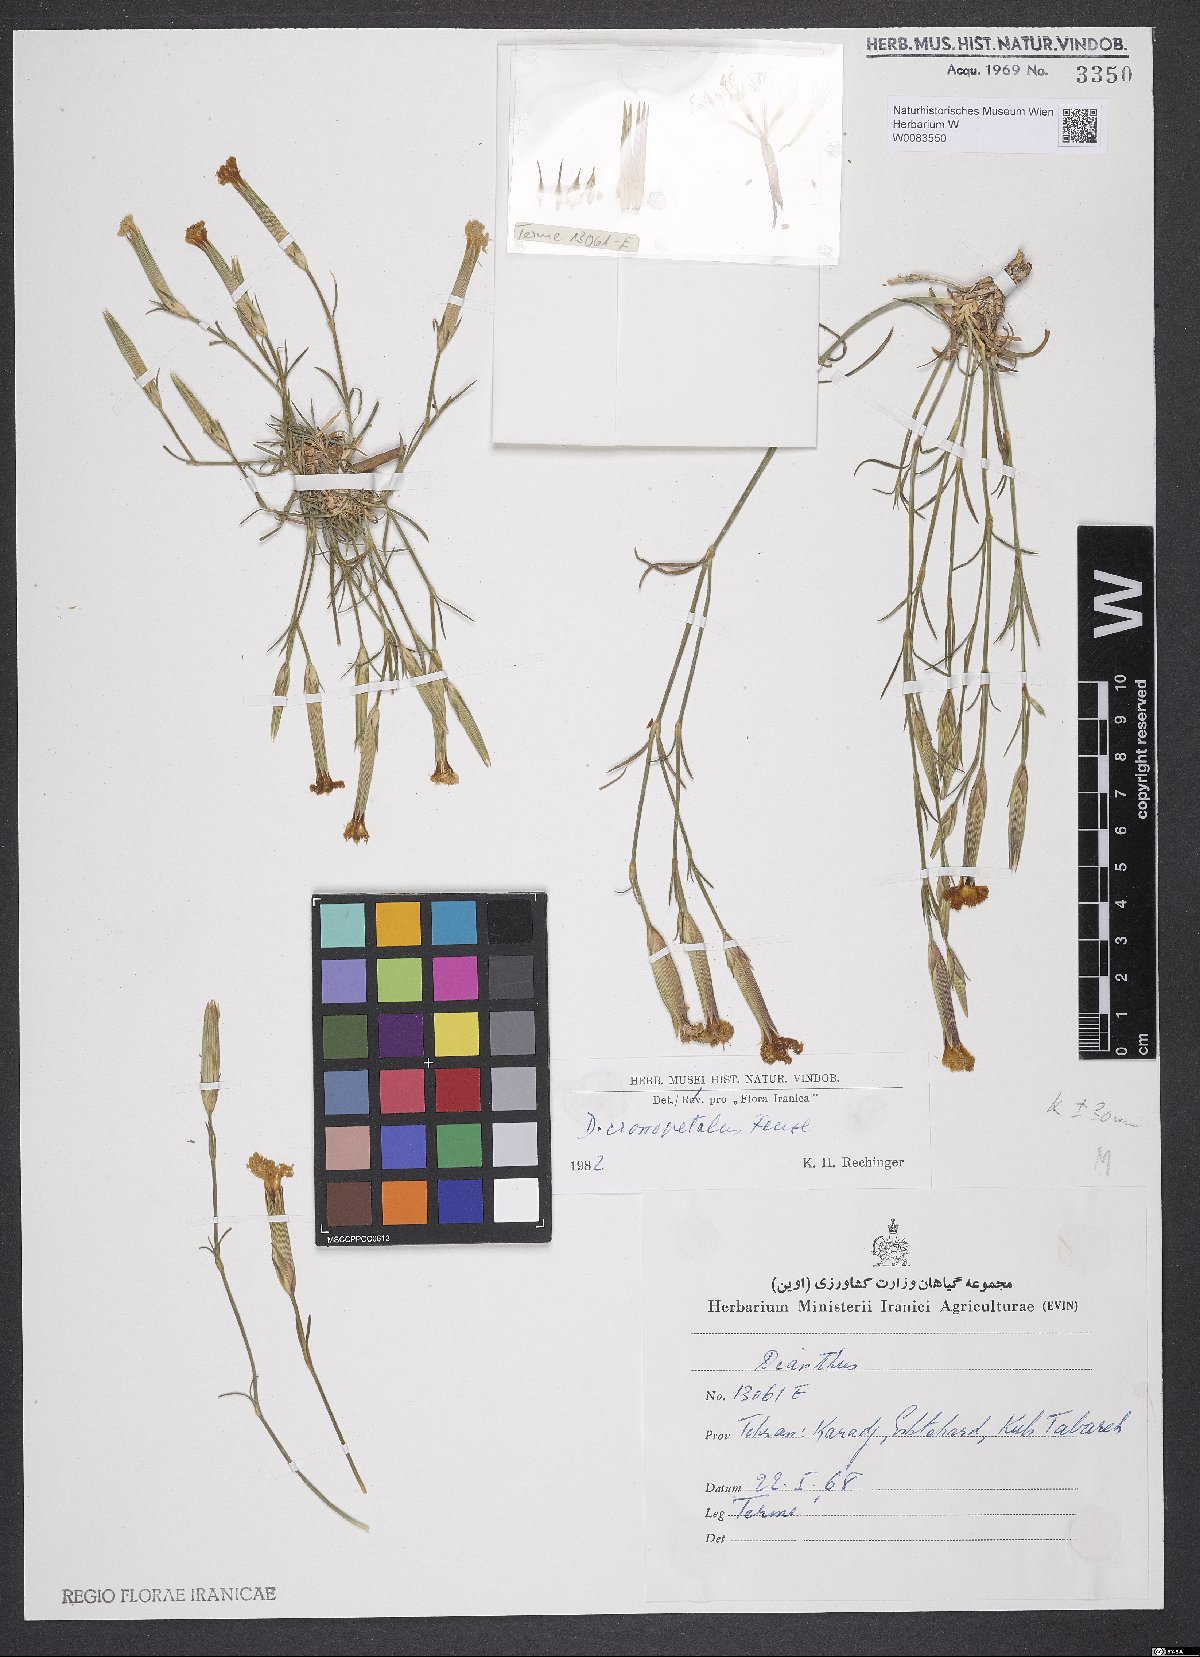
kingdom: Plantae
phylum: Tracheophyta
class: Magnoliopsida
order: Caryophyllales
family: Caryophyllaceae
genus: Dianthus
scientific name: Dianthus crossopetalus
